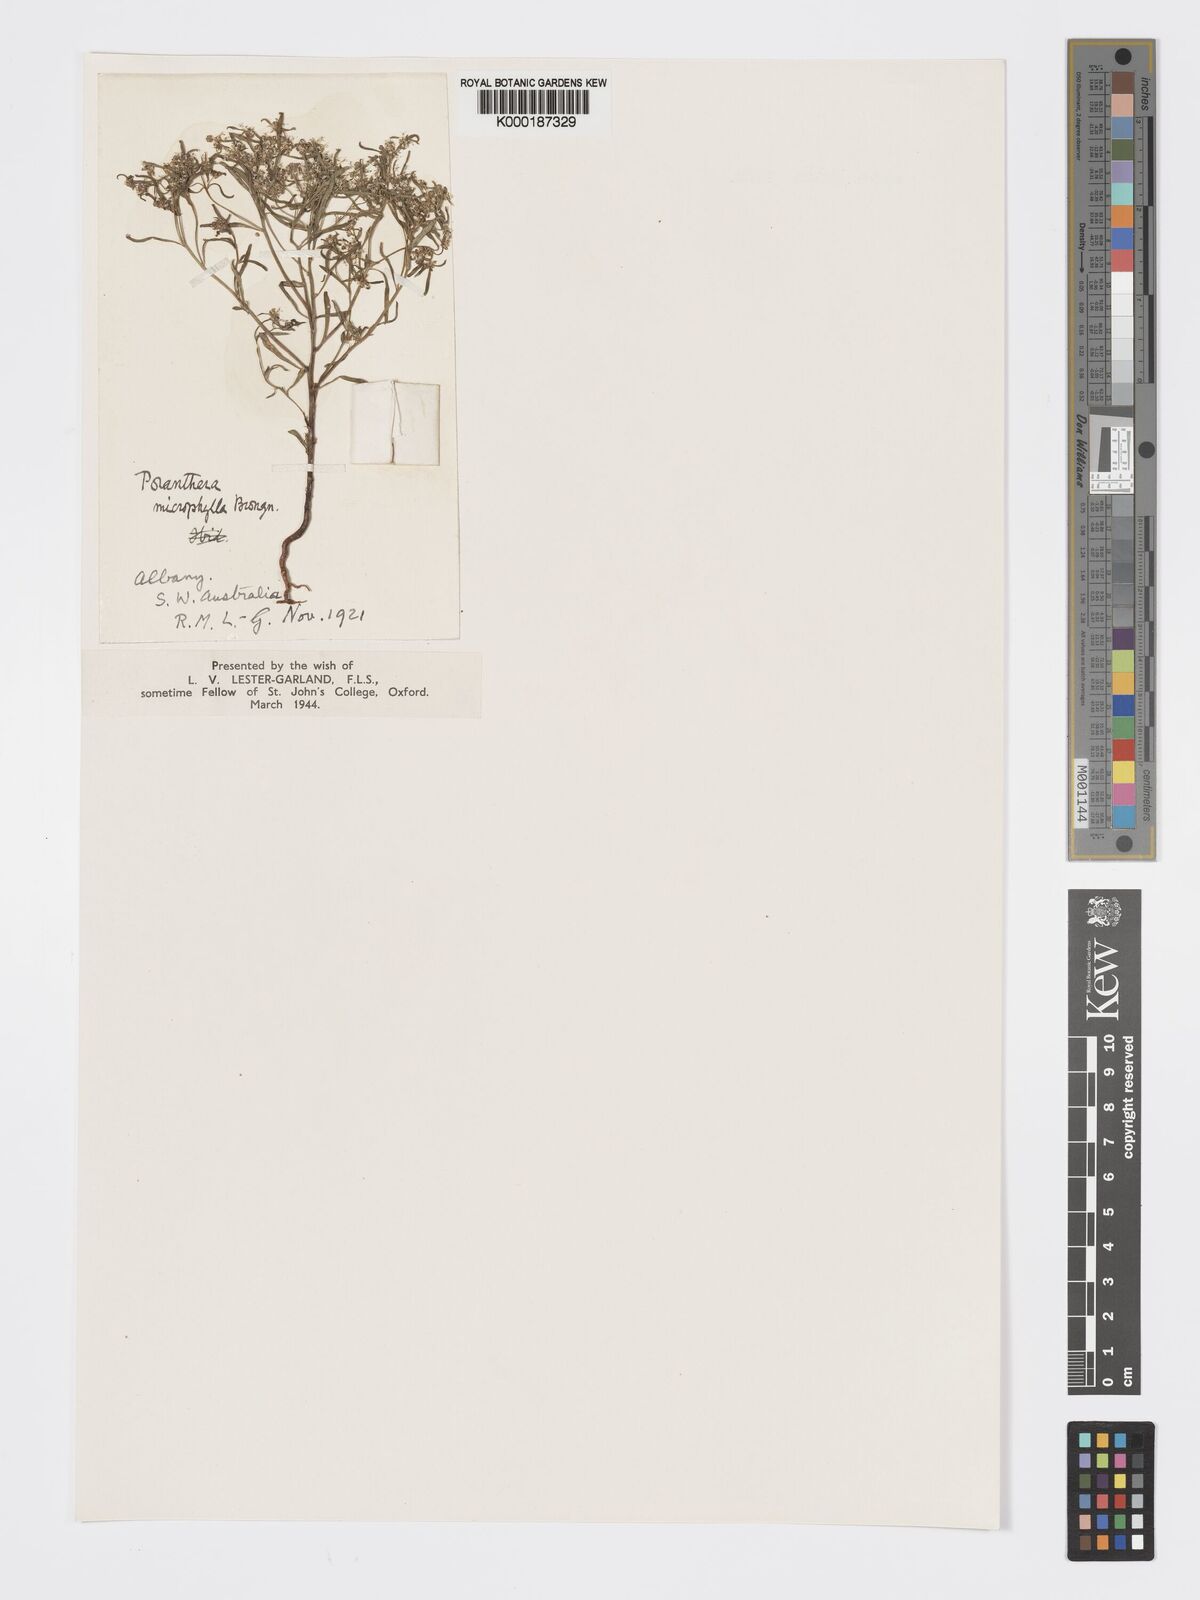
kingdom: Plantae
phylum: Tracheophyta
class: Magnoliopsida
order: Malpighiales
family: Phyllanthaceae
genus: Poranthera
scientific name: Poranthera microphylla
